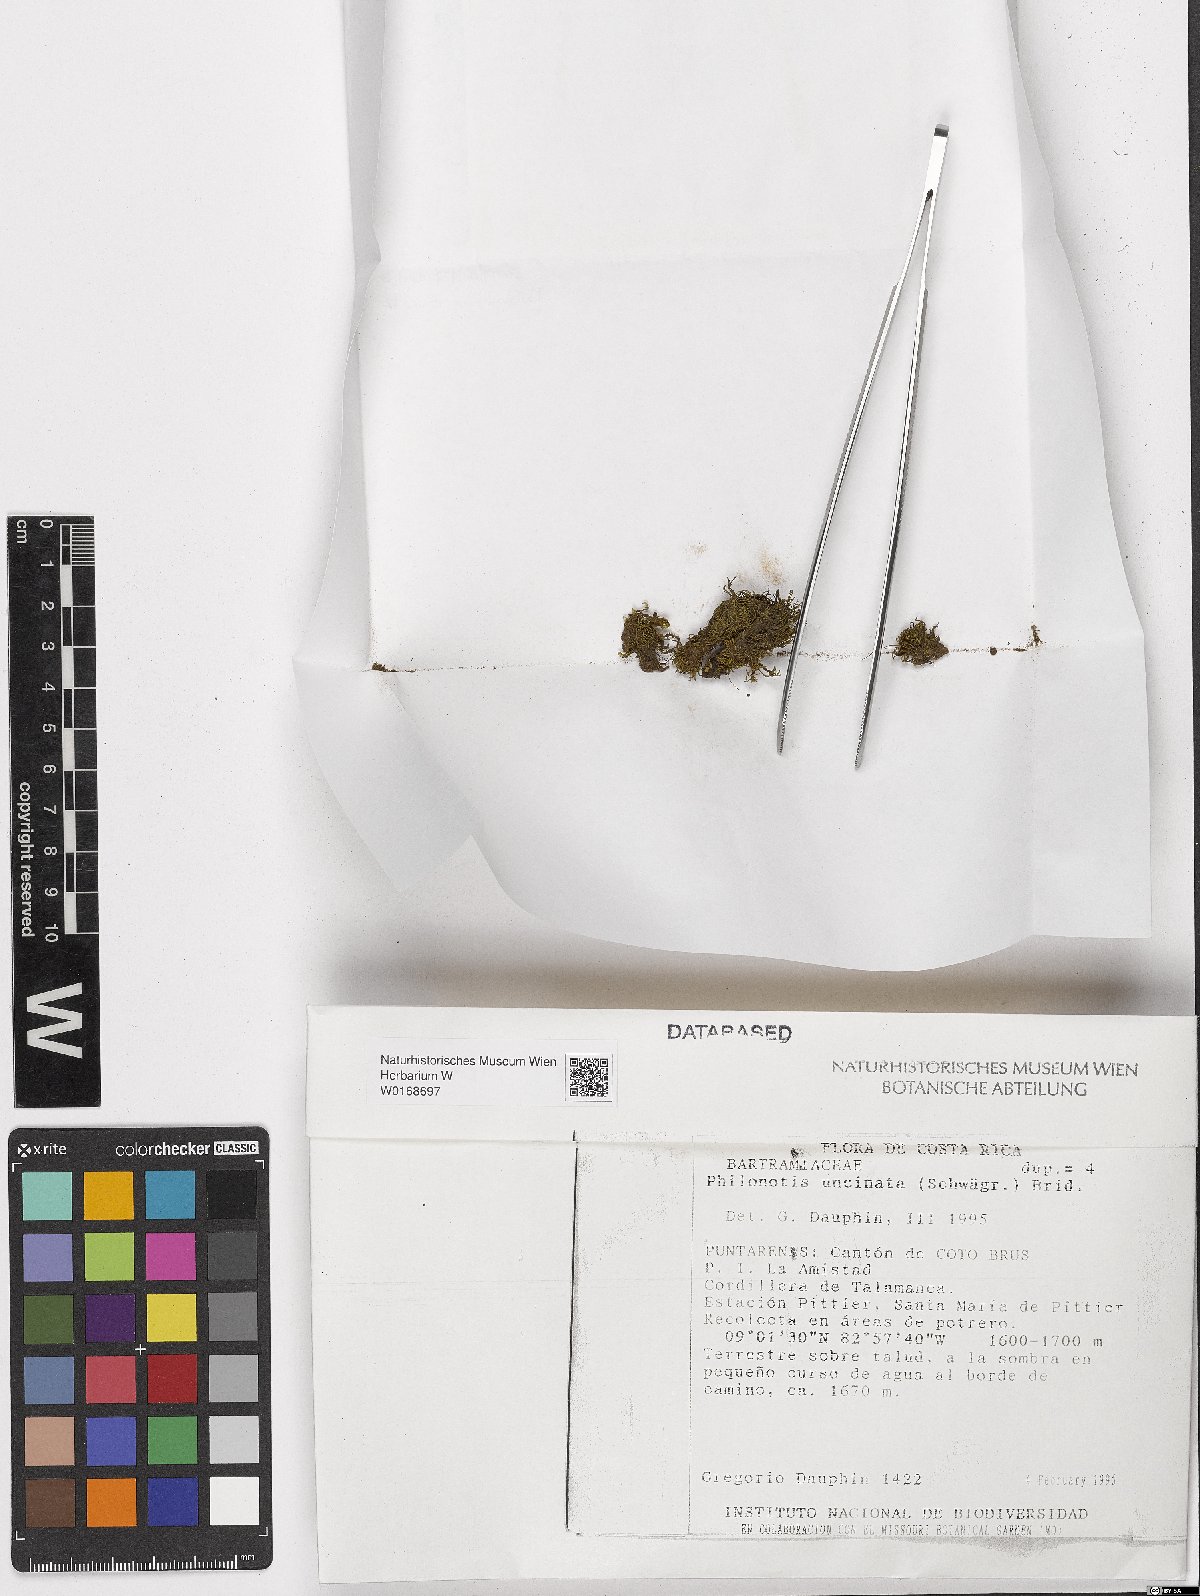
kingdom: Plantae
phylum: Bryophyta
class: Bryopsida
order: Bartramiales
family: Bartramiaceae
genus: Philonotis
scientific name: Philonotis uncinata
